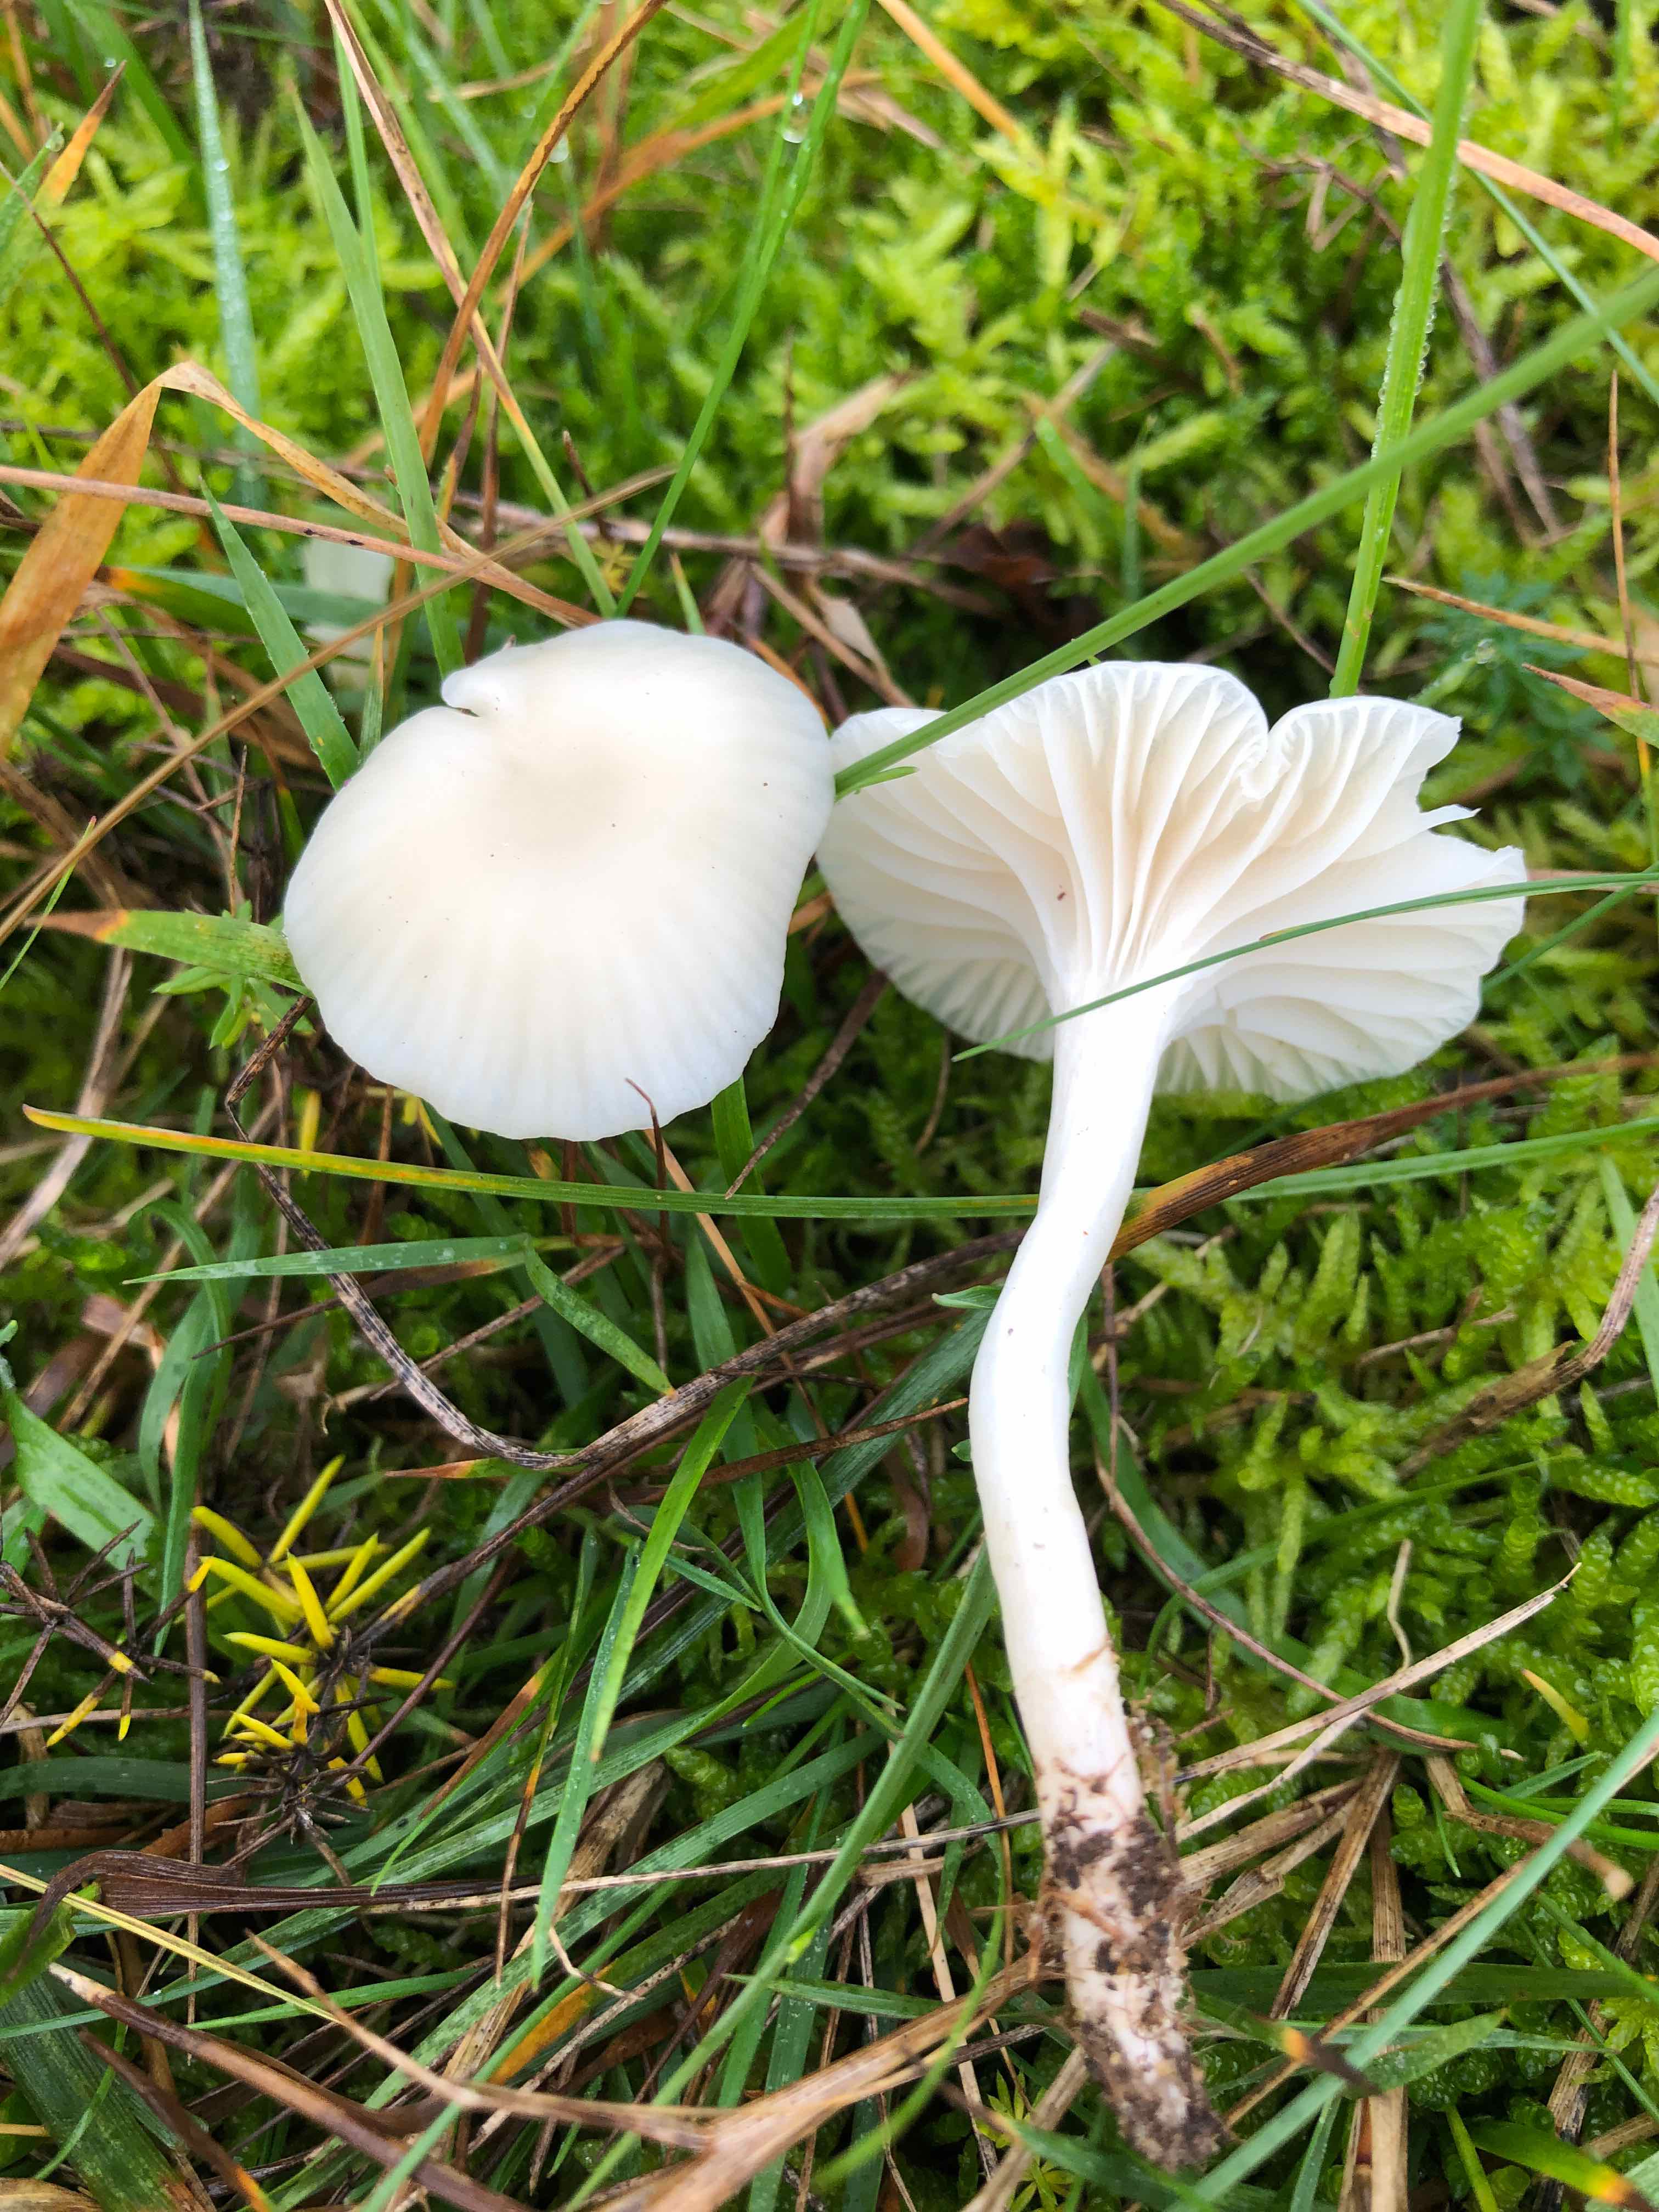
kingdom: Fungi
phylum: Basidiomycota
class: Agaricomycetes
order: Agaricales
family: Hygrophoraceae
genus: Cuphophyllus
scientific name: Cuphophyllus virgineus
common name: snehvid vokshat
